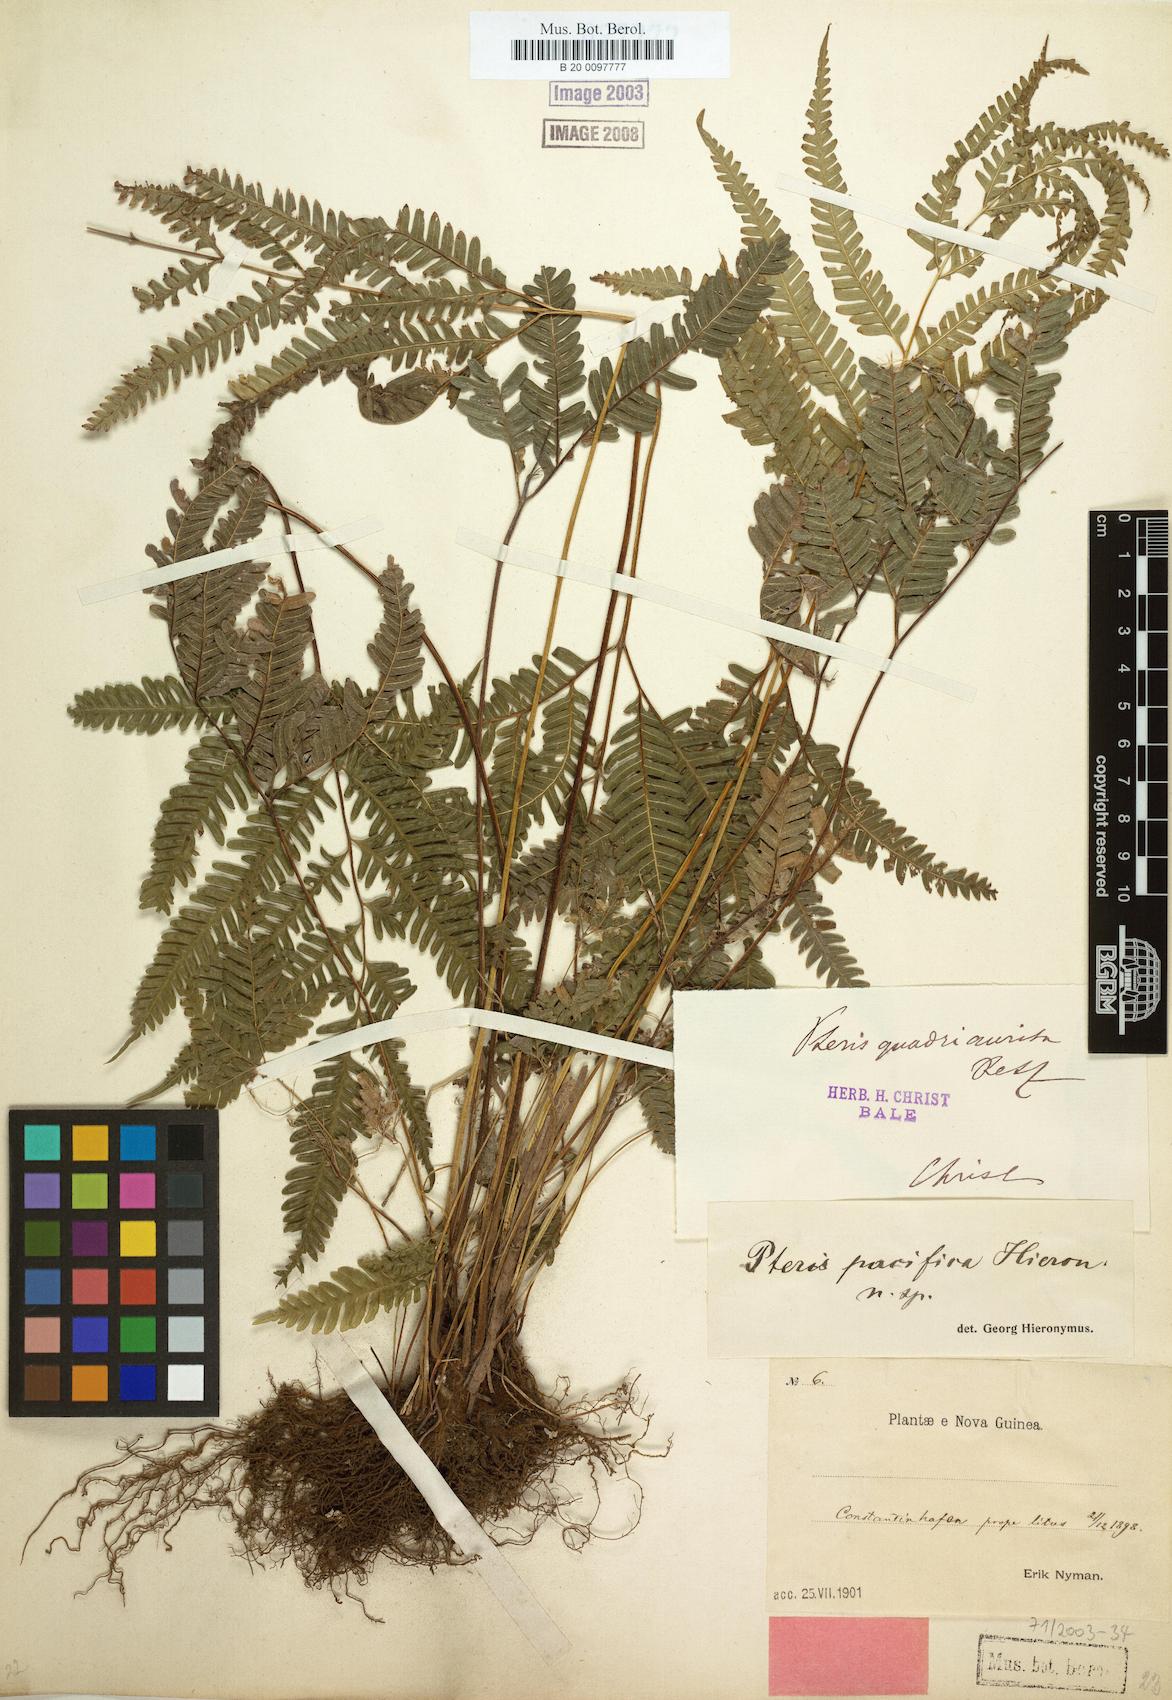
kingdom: Plantae
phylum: Tracheophyta
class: Polypodiopsida
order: Polypodiales
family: Pteridaceae
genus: Pteris
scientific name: Pteris biaurita
